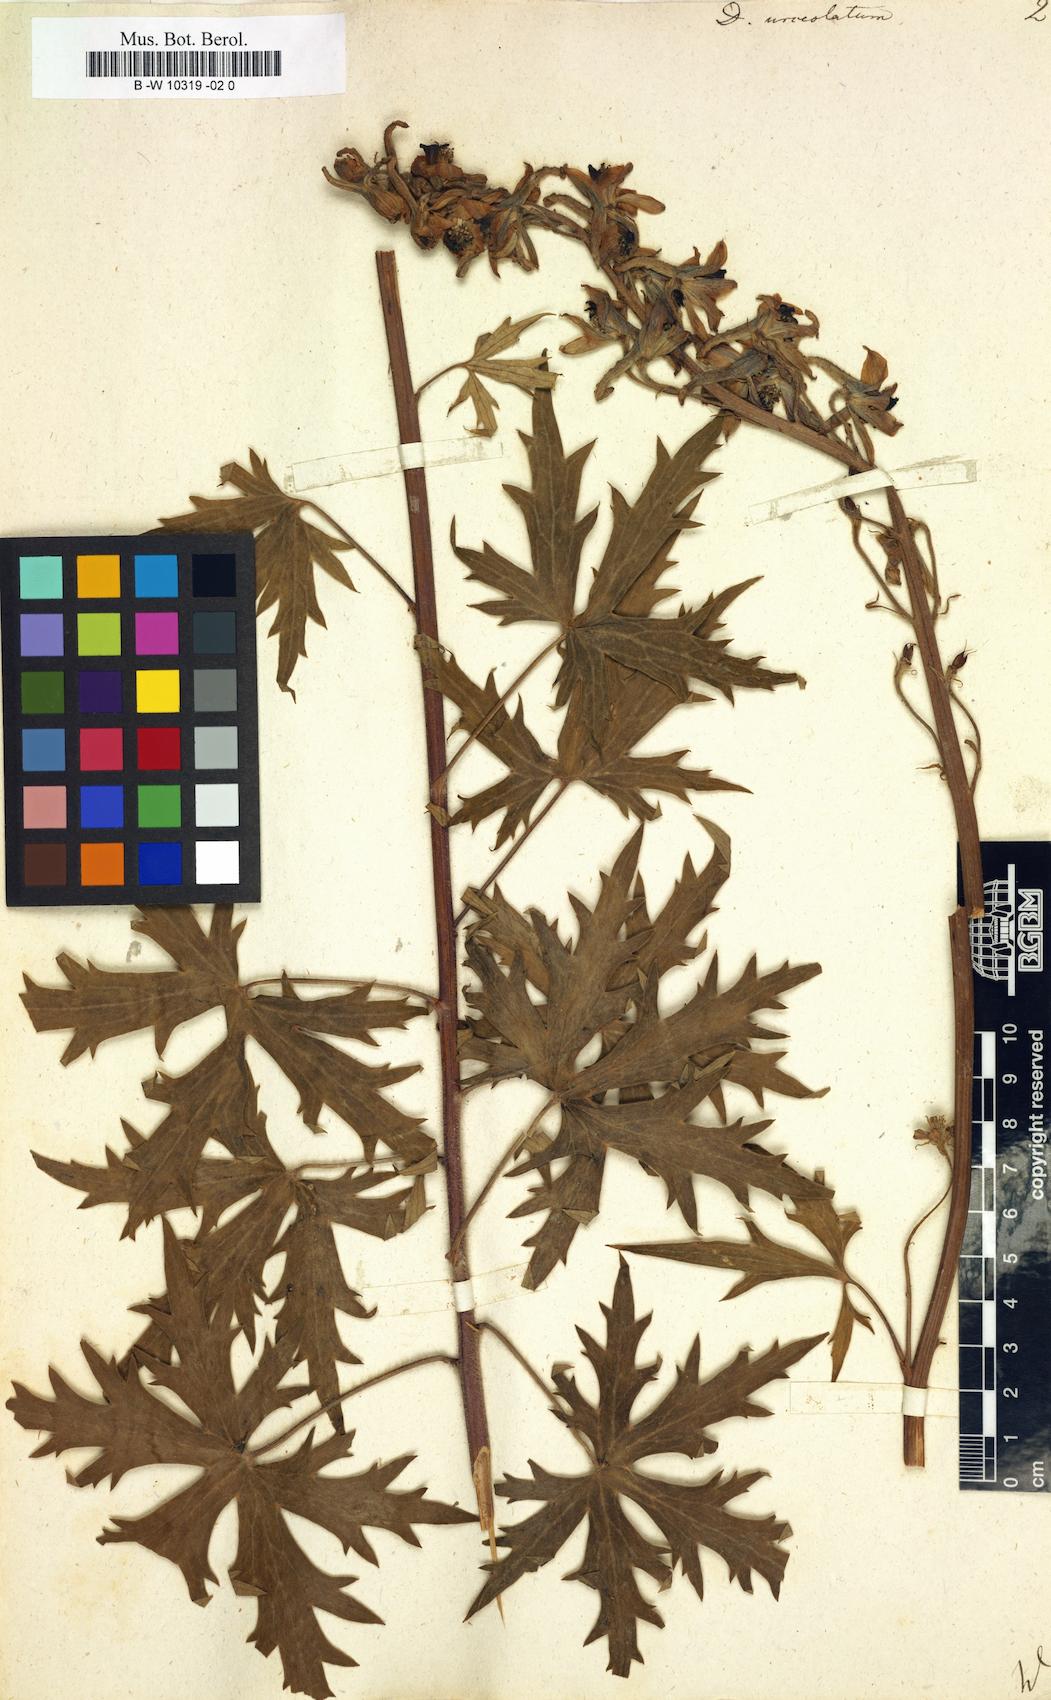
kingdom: Plantae
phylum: Tracheophyta
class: Magnoliopsida
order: Ranunculales
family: Ranunculaceae
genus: Delphinium
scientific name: Delphinium elatum
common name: Candle larkspur
